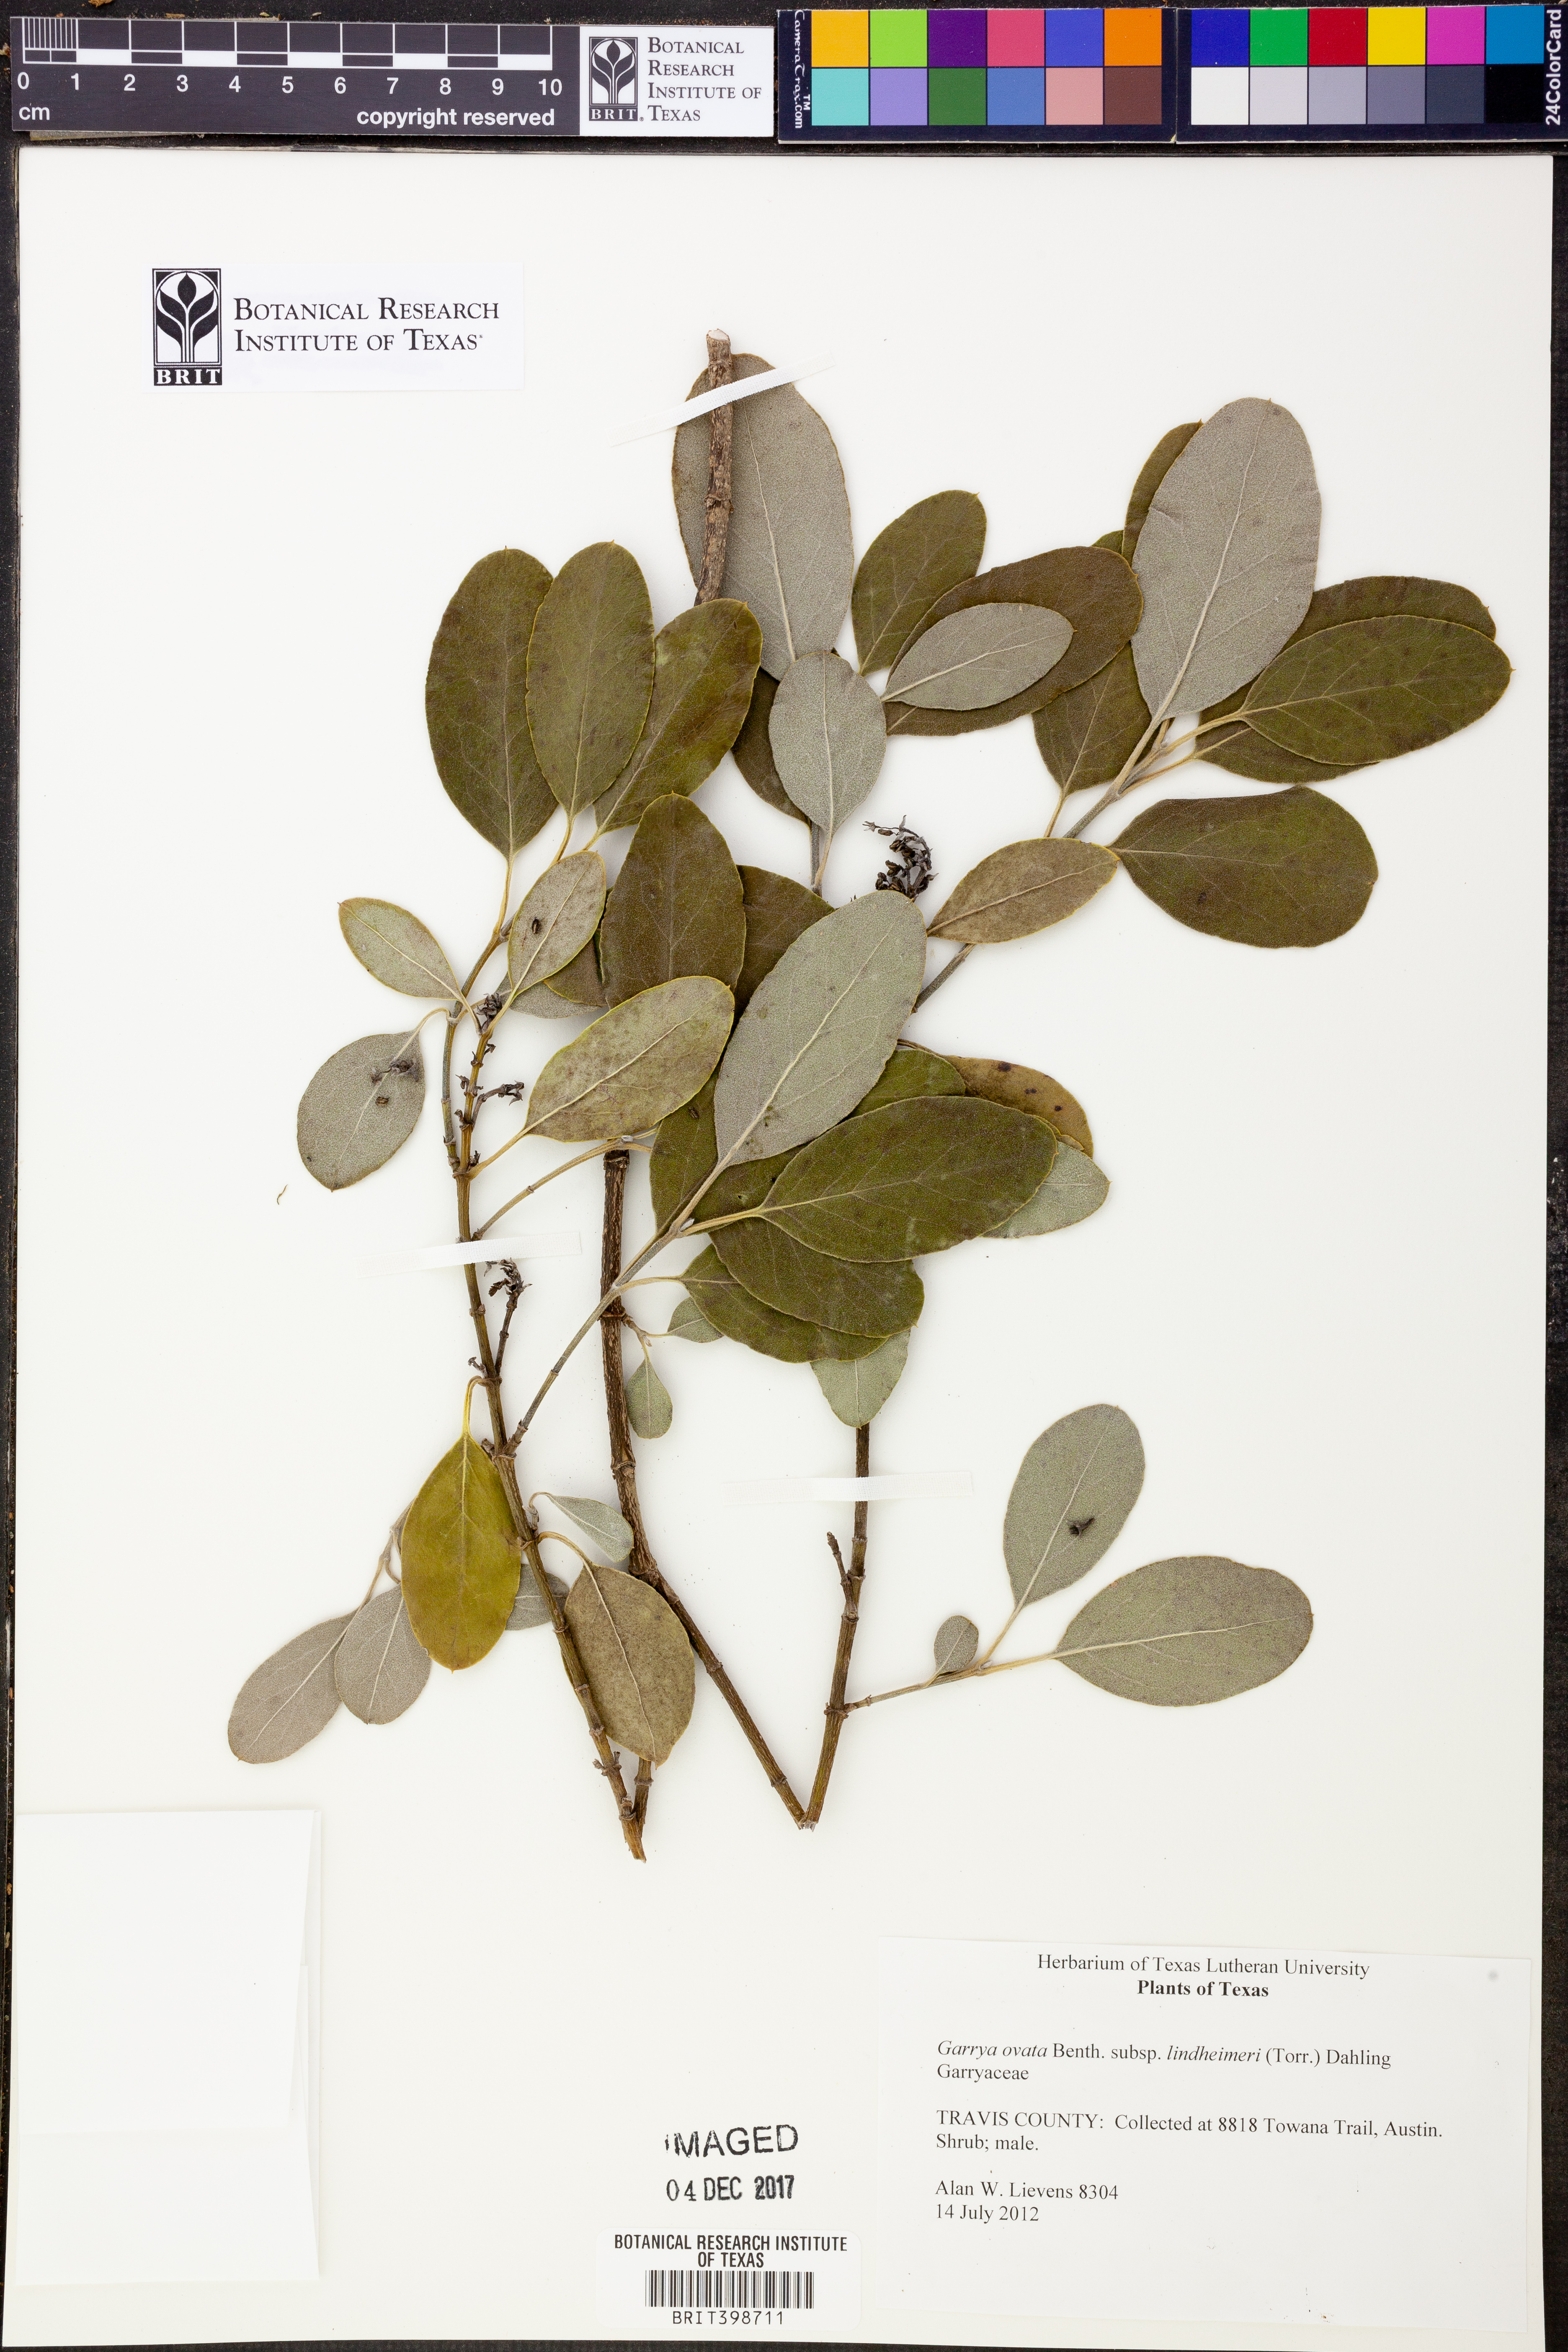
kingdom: Plantae
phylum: Tracheophyta
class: Magnoliopsida
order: Garryales
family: Garryaceae
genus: Garrya
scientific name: Garrya lindheimeri
